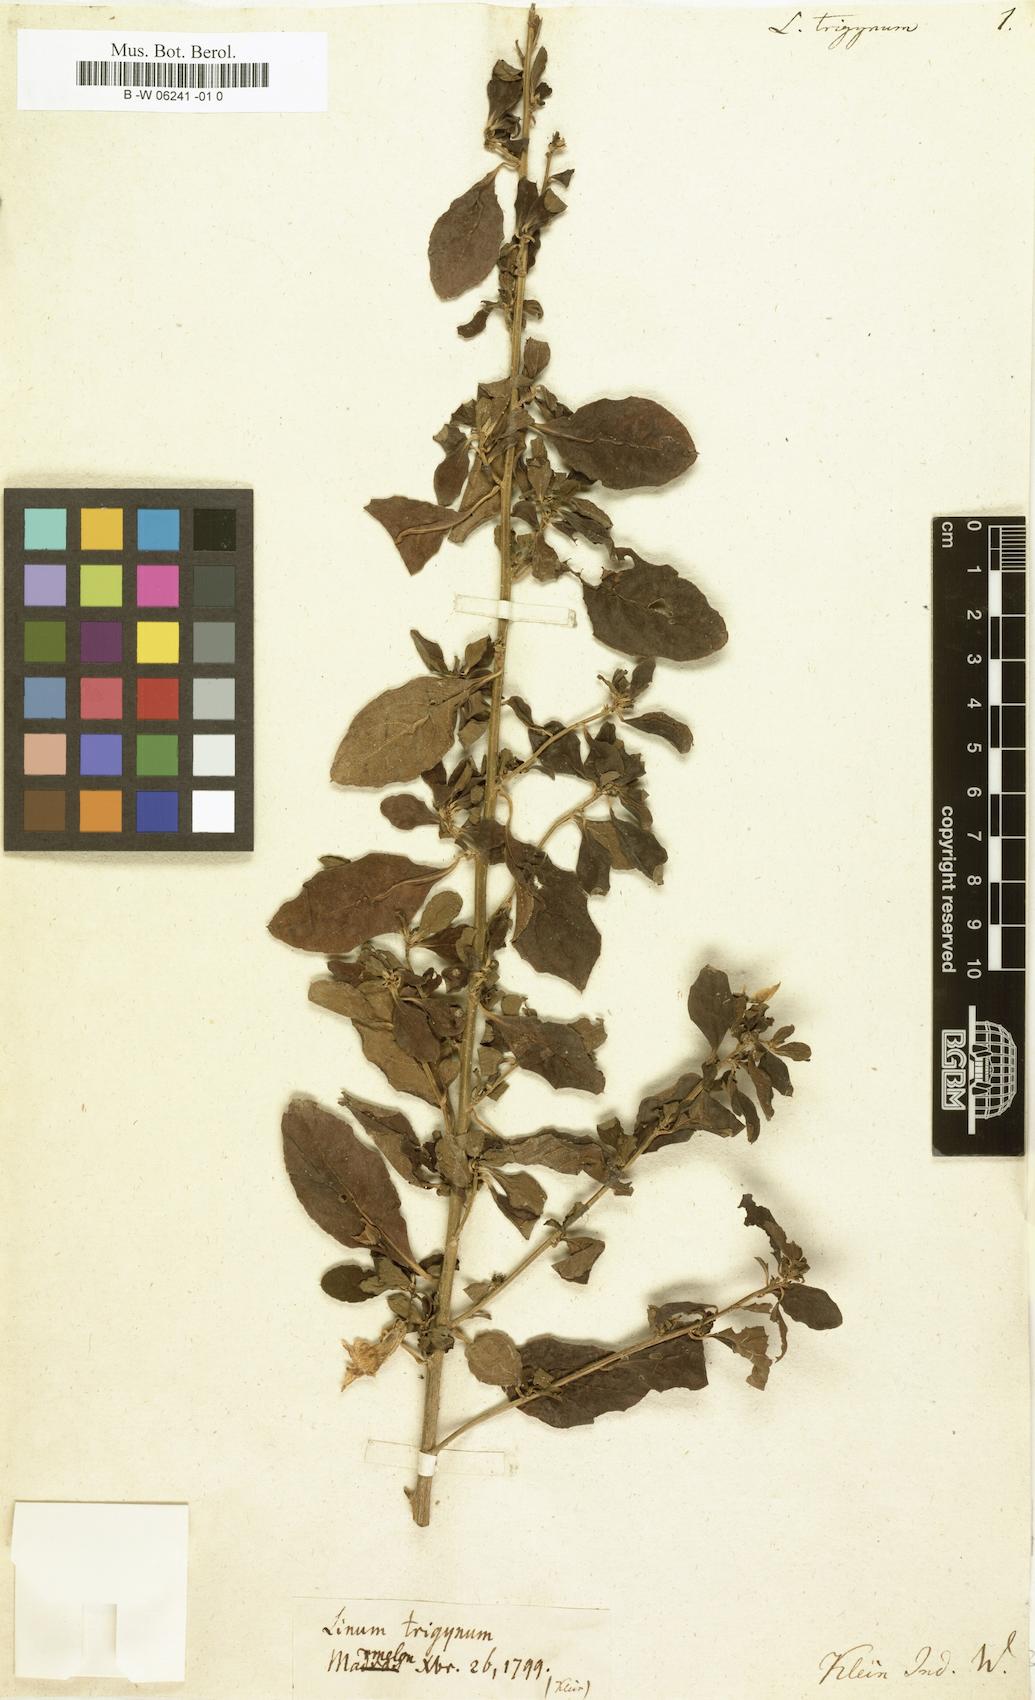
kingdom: Plantae
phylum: Tracheophyta
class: Magnoliopsida
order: Malpighiales
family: Linaceae
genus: Linum
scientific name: Linum trigynum
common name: French flax
